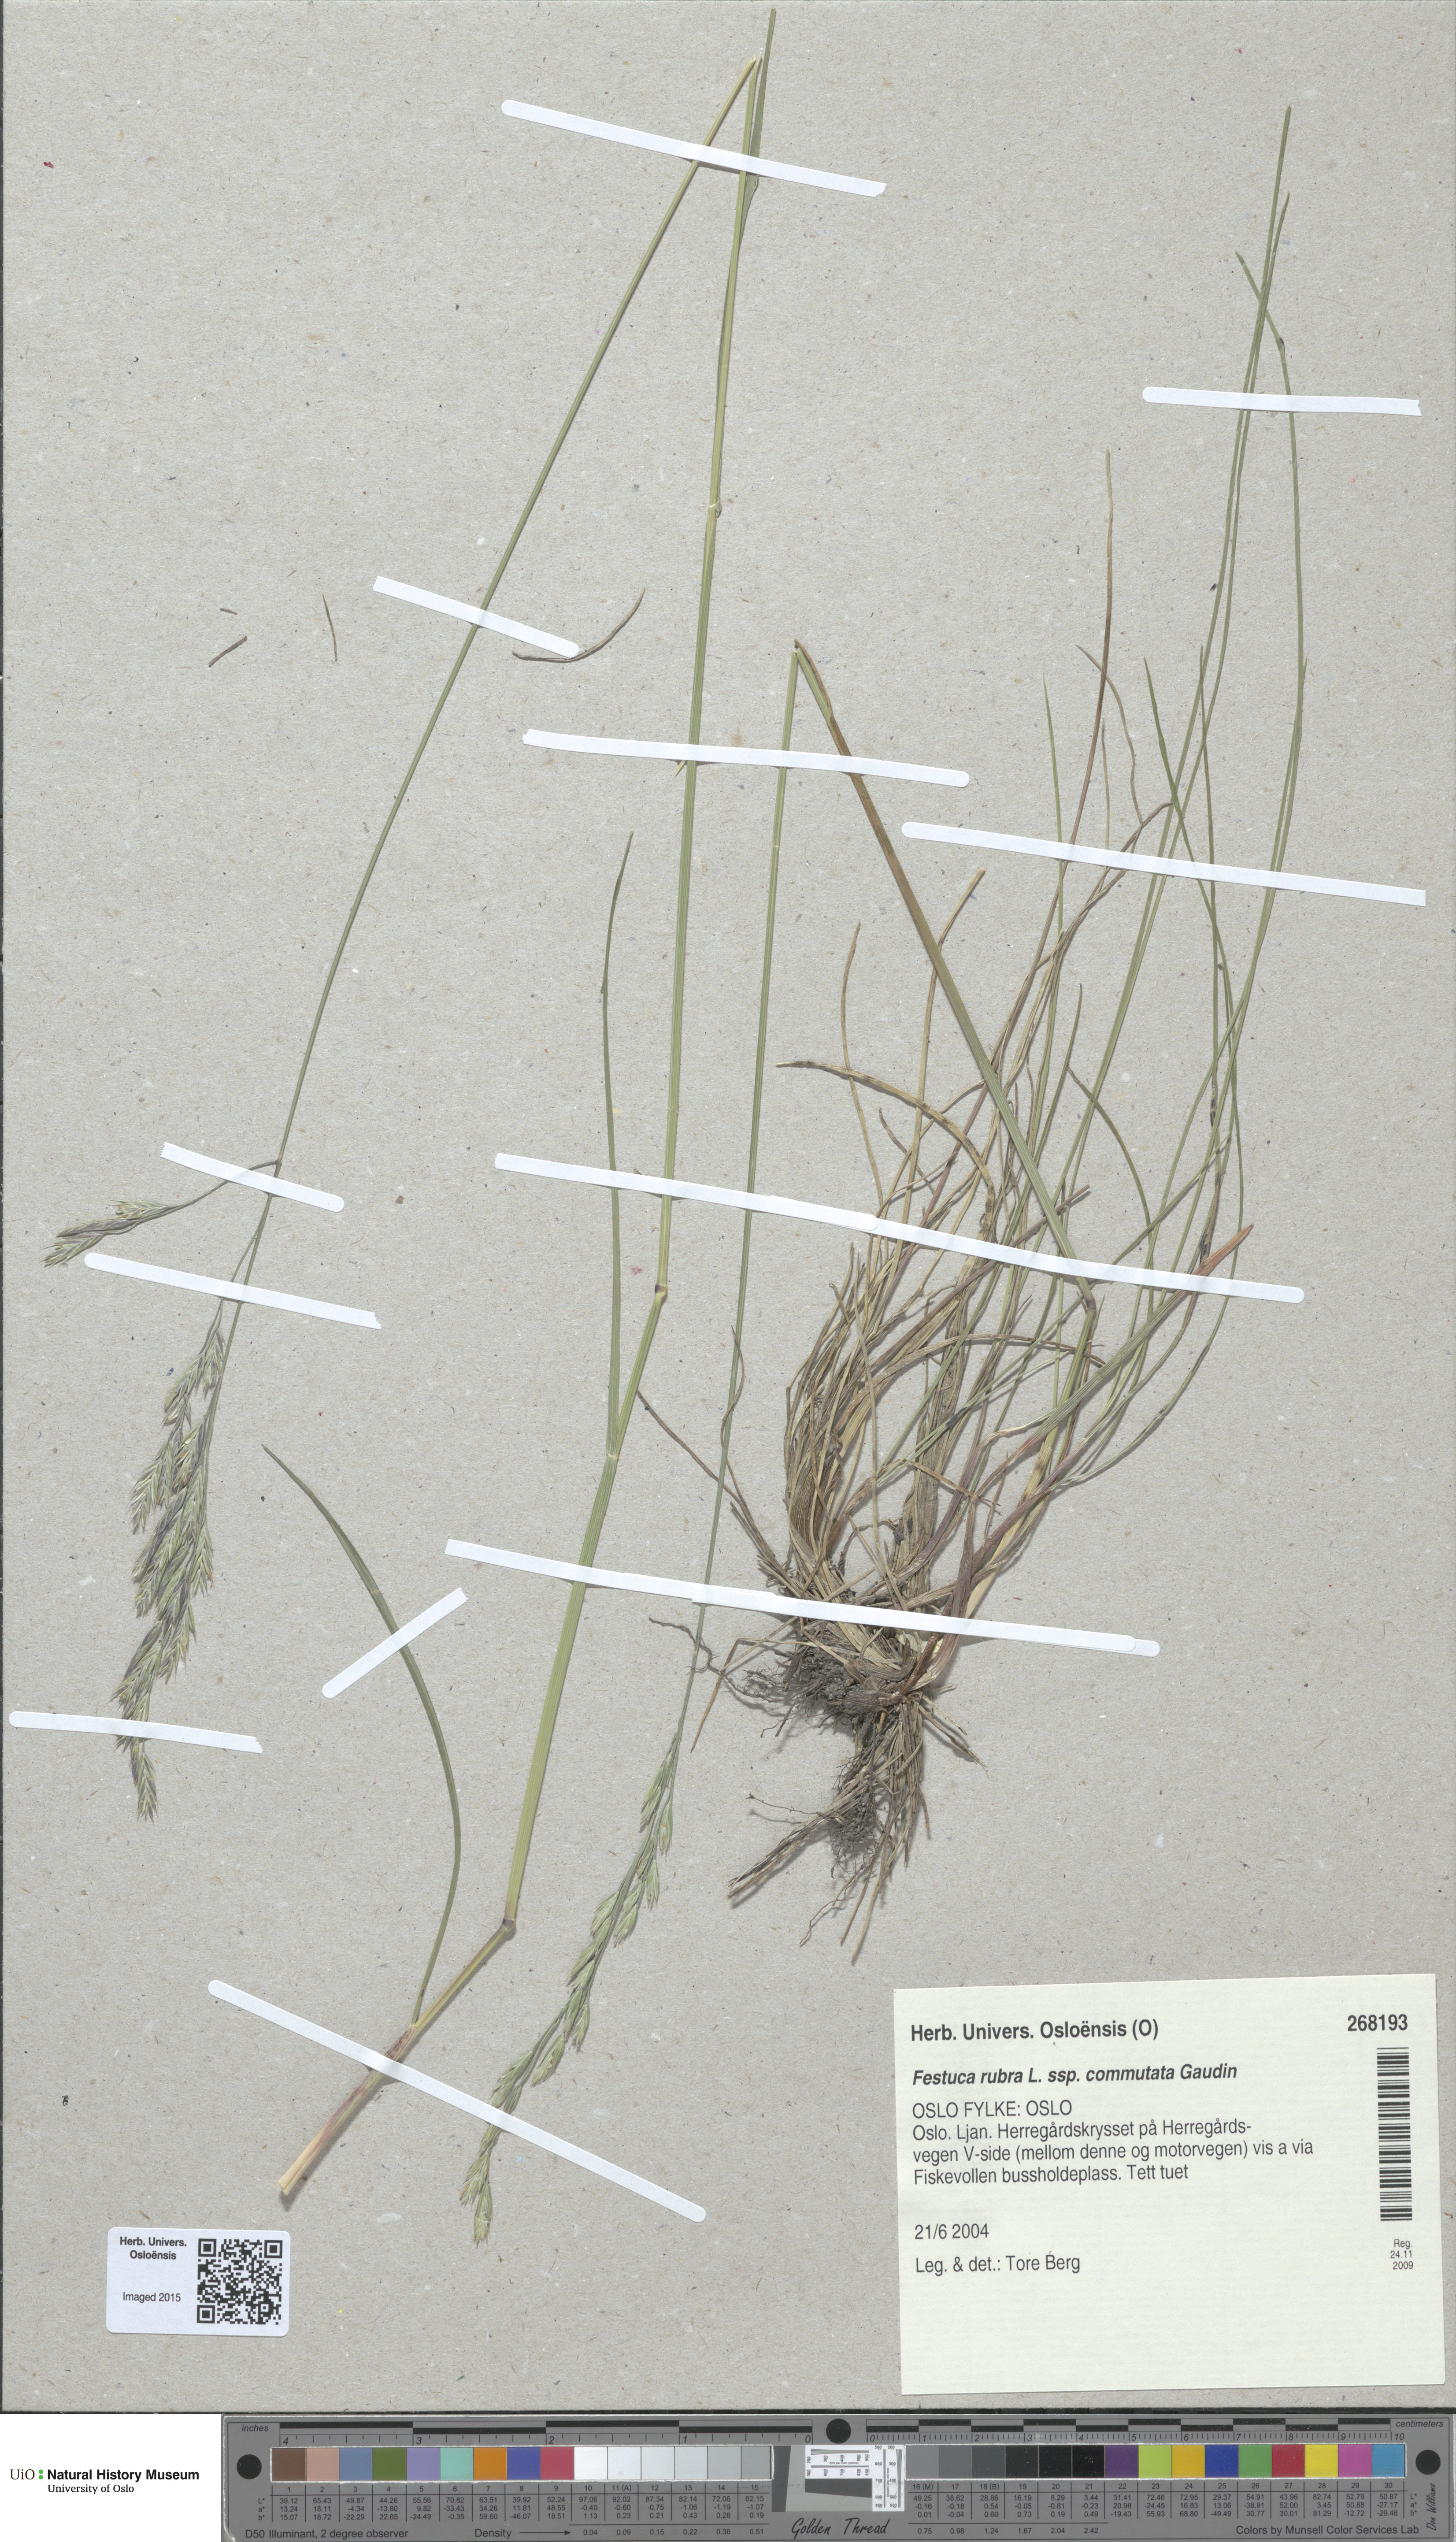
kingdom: Plantae
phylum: Tracheophyta
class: Liliopsida
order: Poales
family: Poaceae
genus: Festuca
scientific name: Festuca rubra
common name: Red fescue
